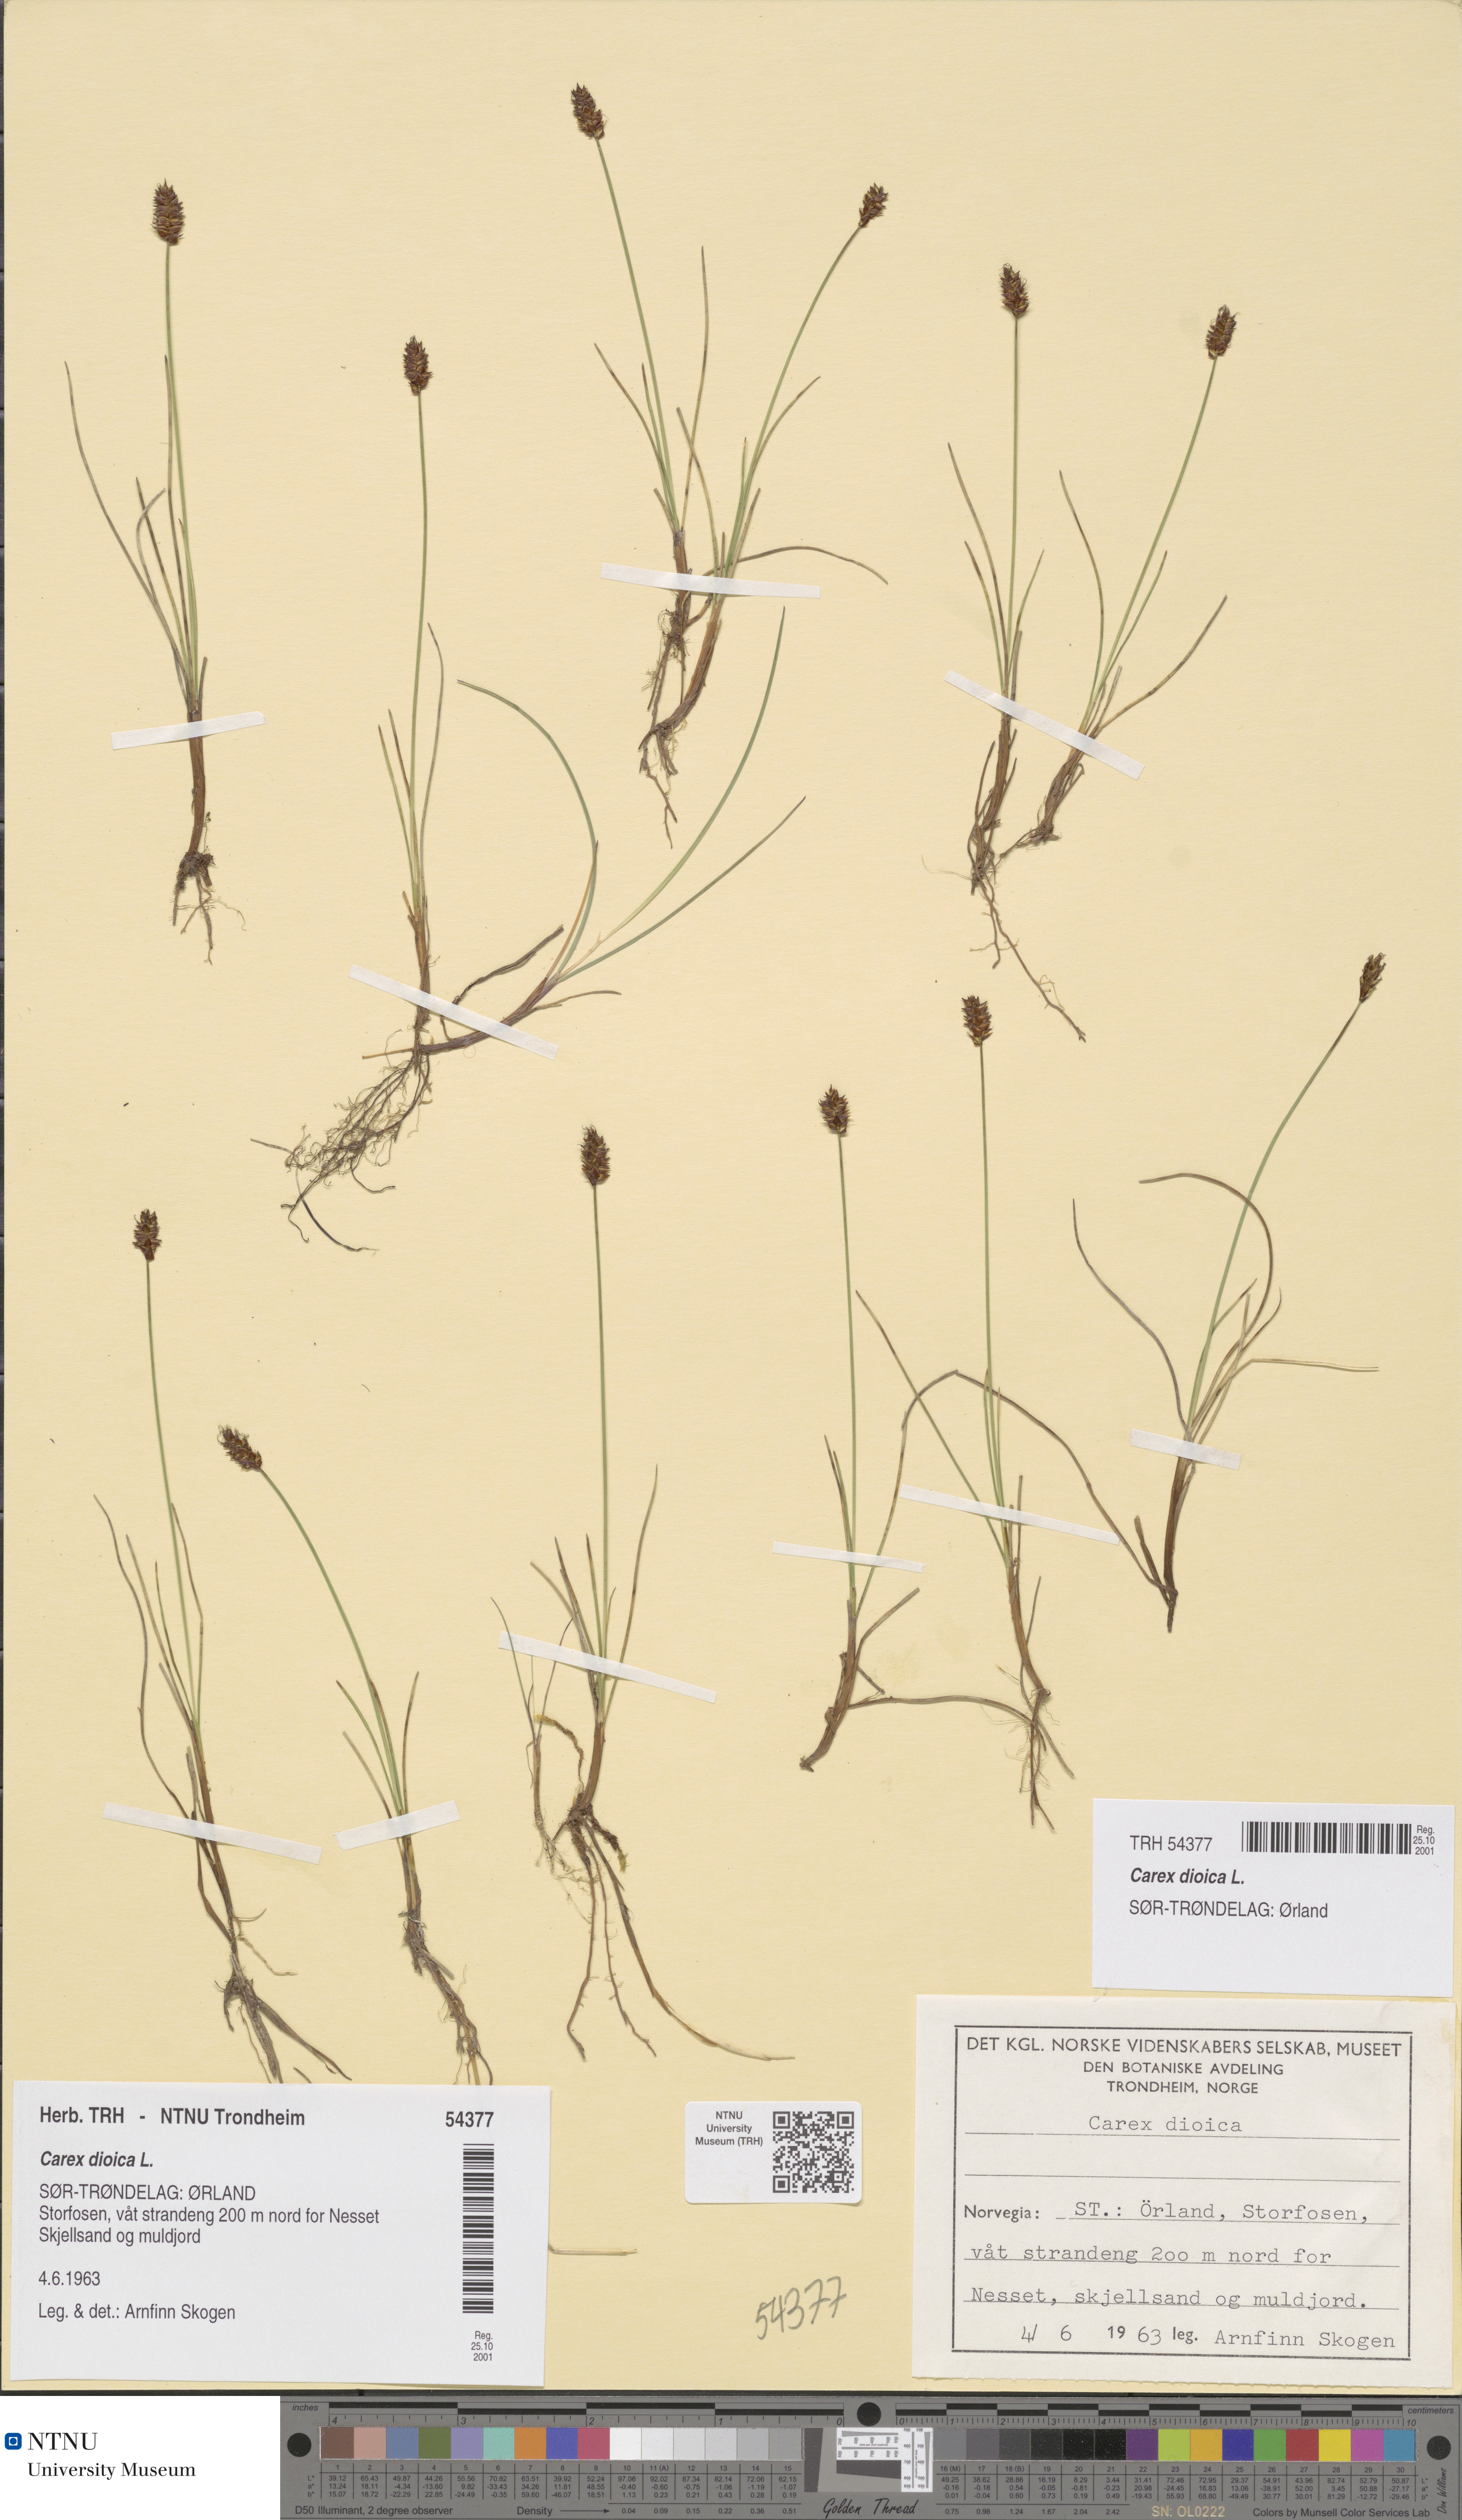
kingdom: Plantae
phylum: Tracheophyta
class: Liliopsida
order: Poales
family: Cyperaceae
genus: Carex
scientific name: Carex dioica
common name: Dioecious sedge
